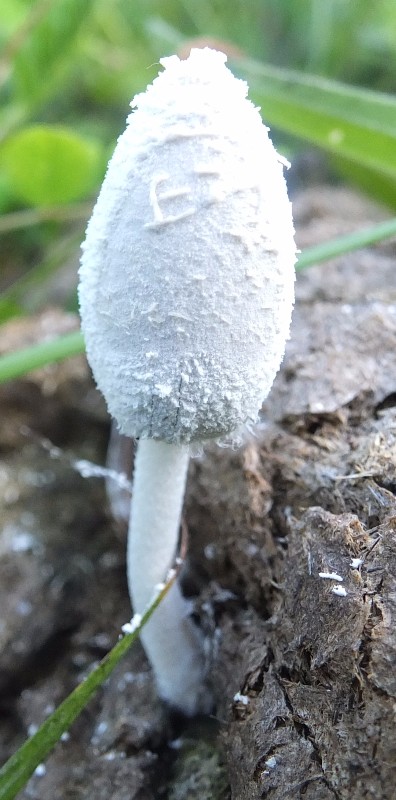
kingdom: Fungi
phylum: Basidiomycota
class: Agaricomycetes
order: Agaricales
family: Psathyrellaceae
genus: Coprinopsis
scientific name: Coprinopsis nivea
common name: snehvid blækhat
